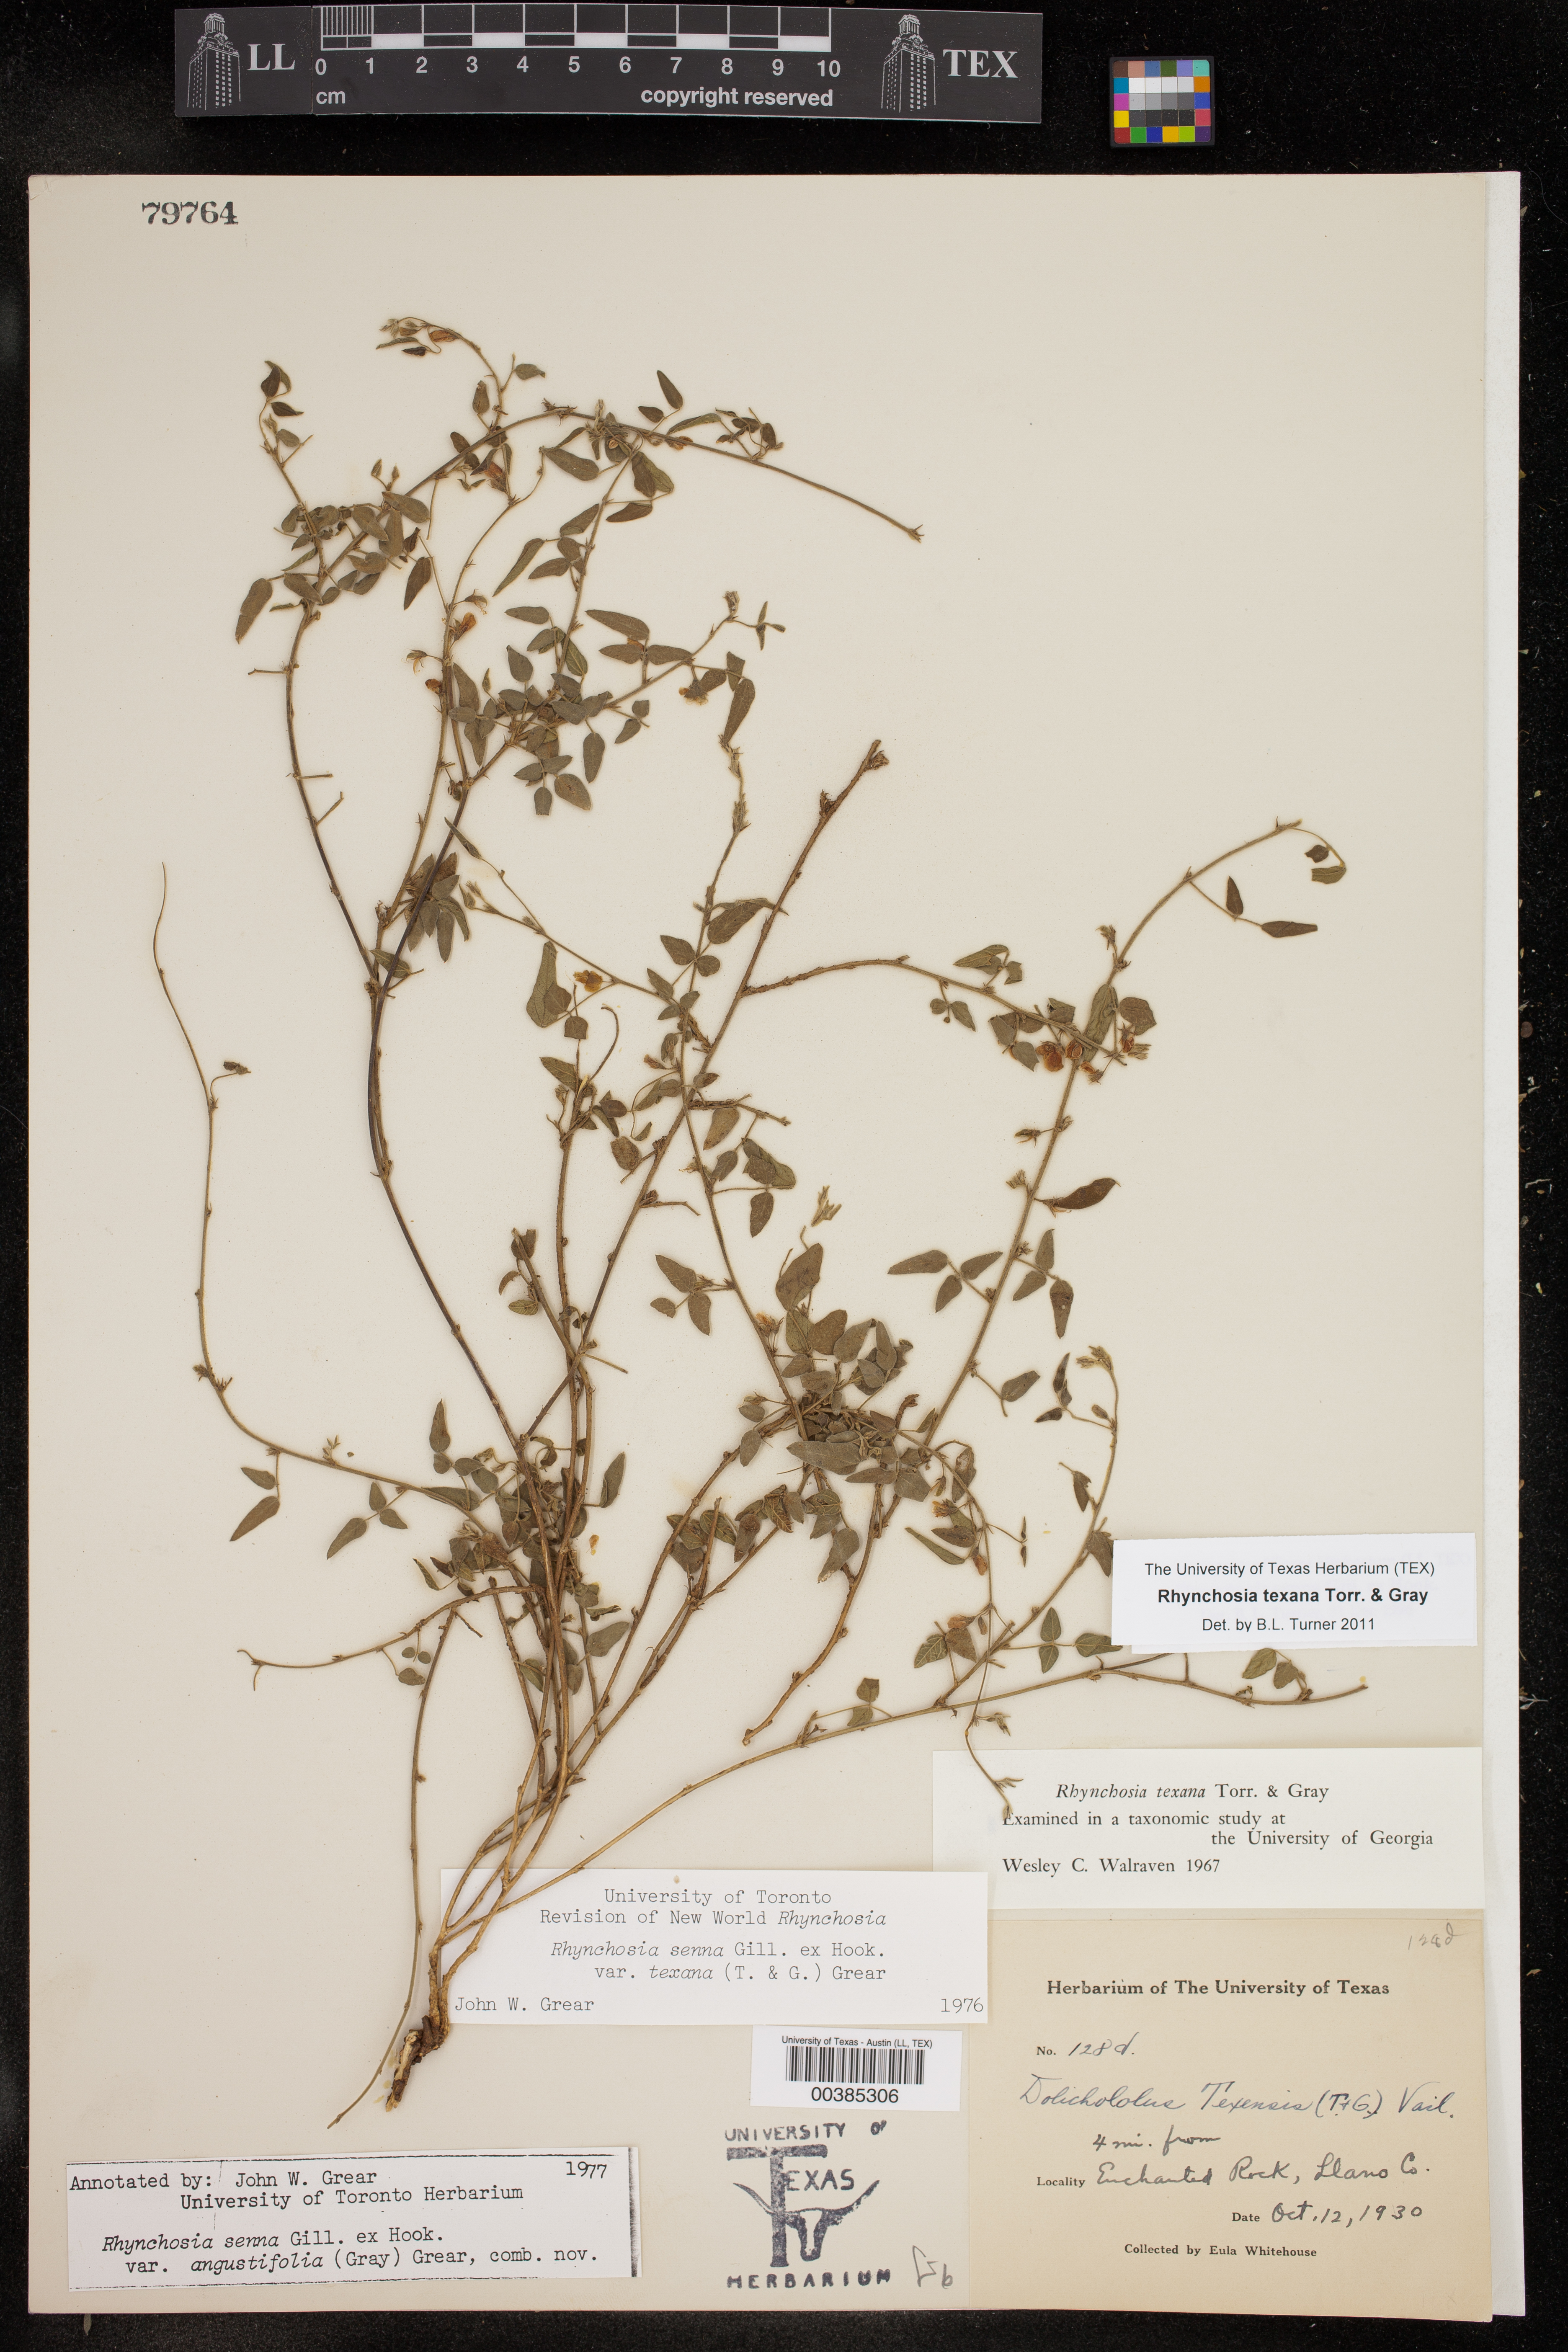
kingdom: Plantae
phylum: Tracheophyta
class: Magnoliopsida
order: Fabales
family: Fabaceae
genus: Rhynchosia
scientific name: Rhynchosia senna
